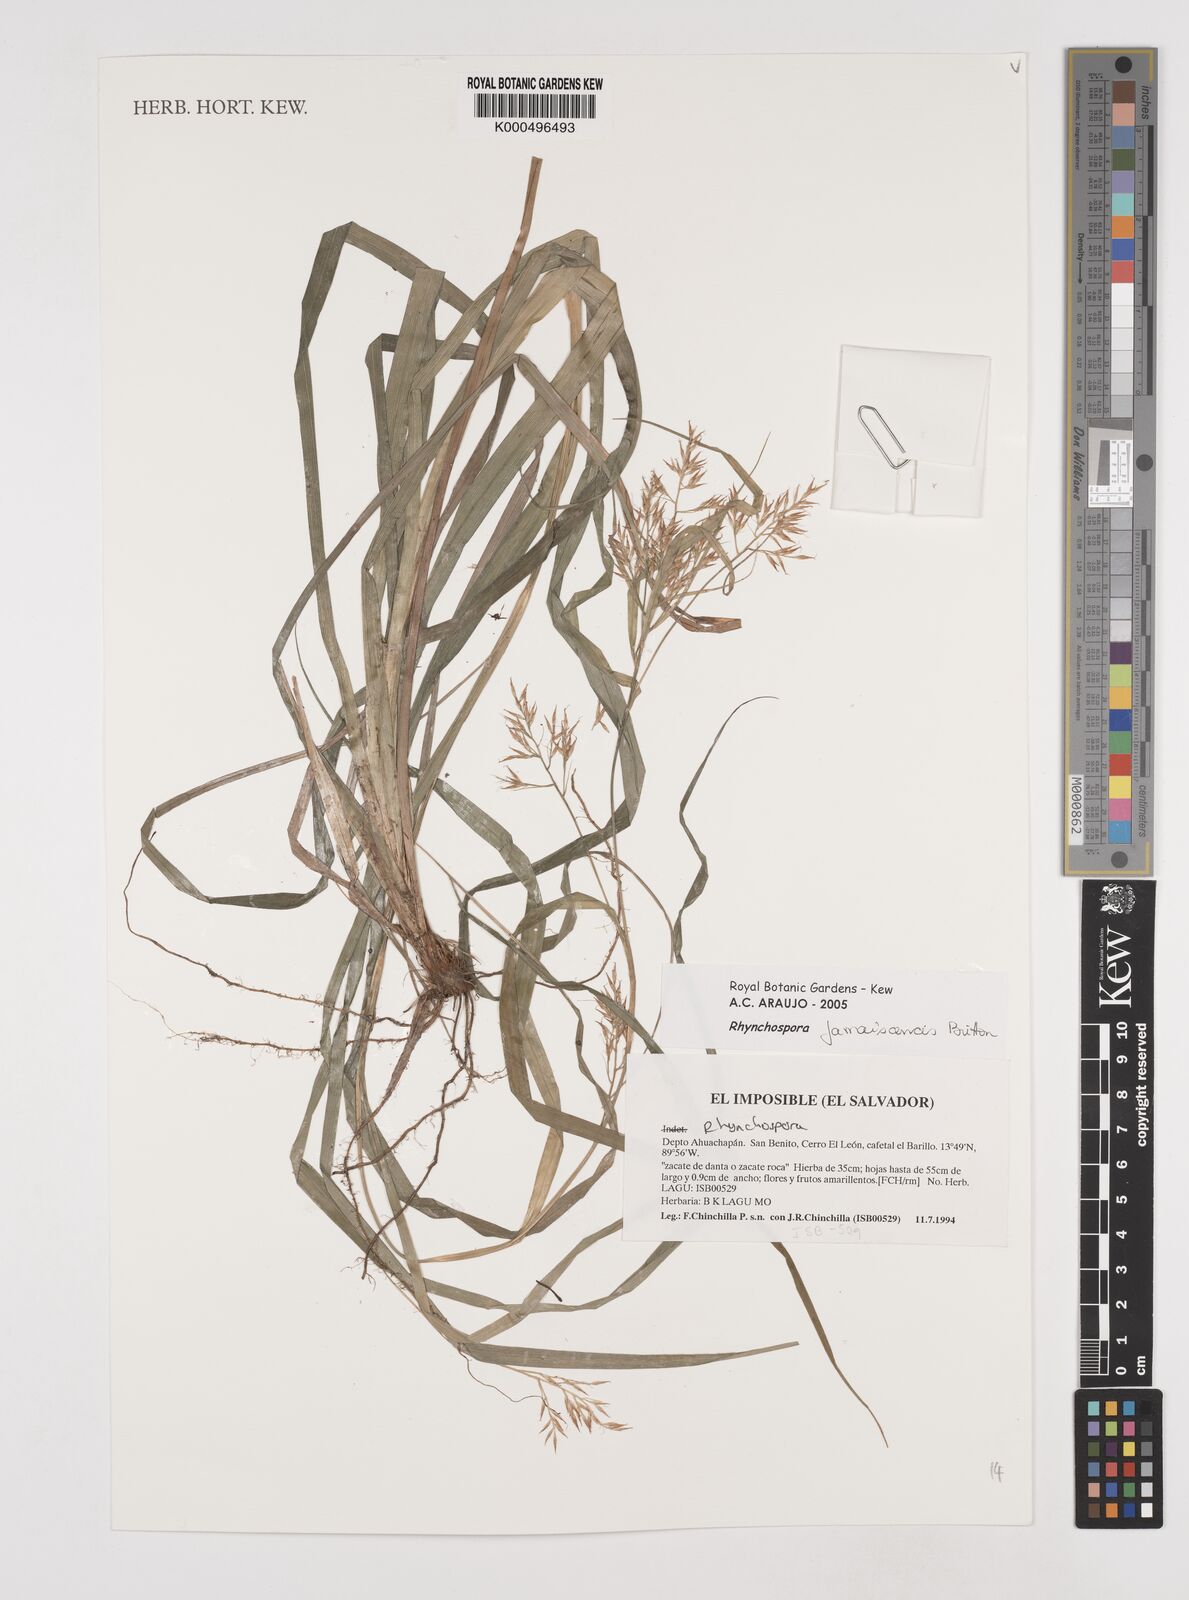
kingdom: Plantae
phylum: Tracheophyta
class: Liliopsida
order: Poales
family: Cyperaceae
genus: Rhynchospora
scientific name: Rhynchospora jamaicensis
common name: Jamaican beaksedge
